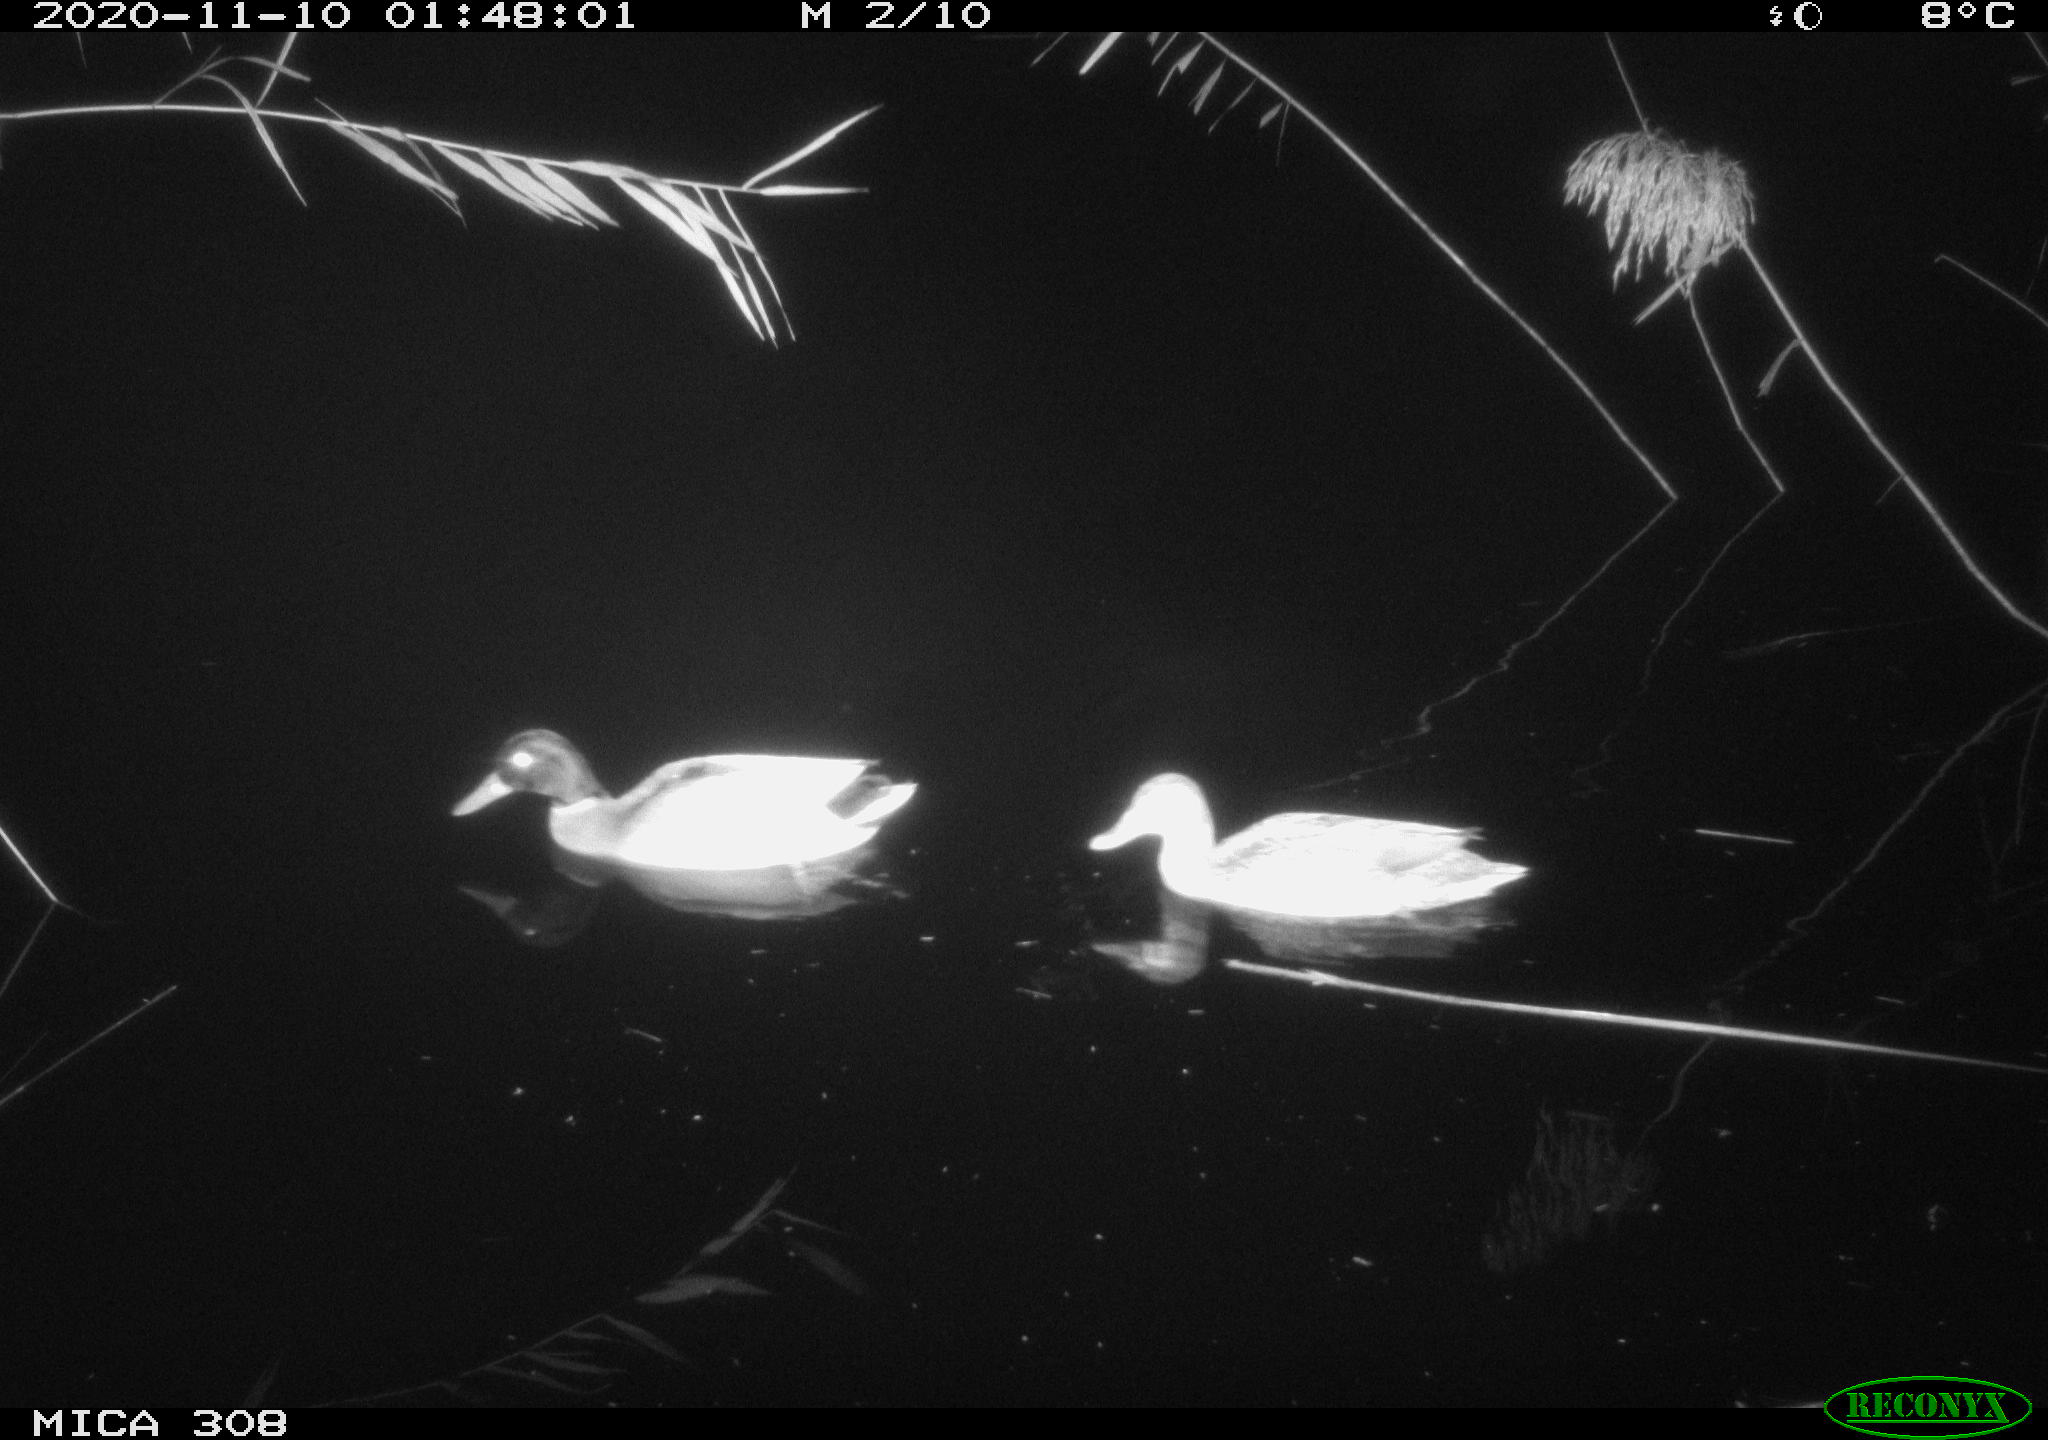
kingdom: Animalia
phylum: Chordata
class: Aves
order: Anseriformes
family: Anatidae
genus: Anas
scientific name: Anas platyrhynchos
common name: Mallard
